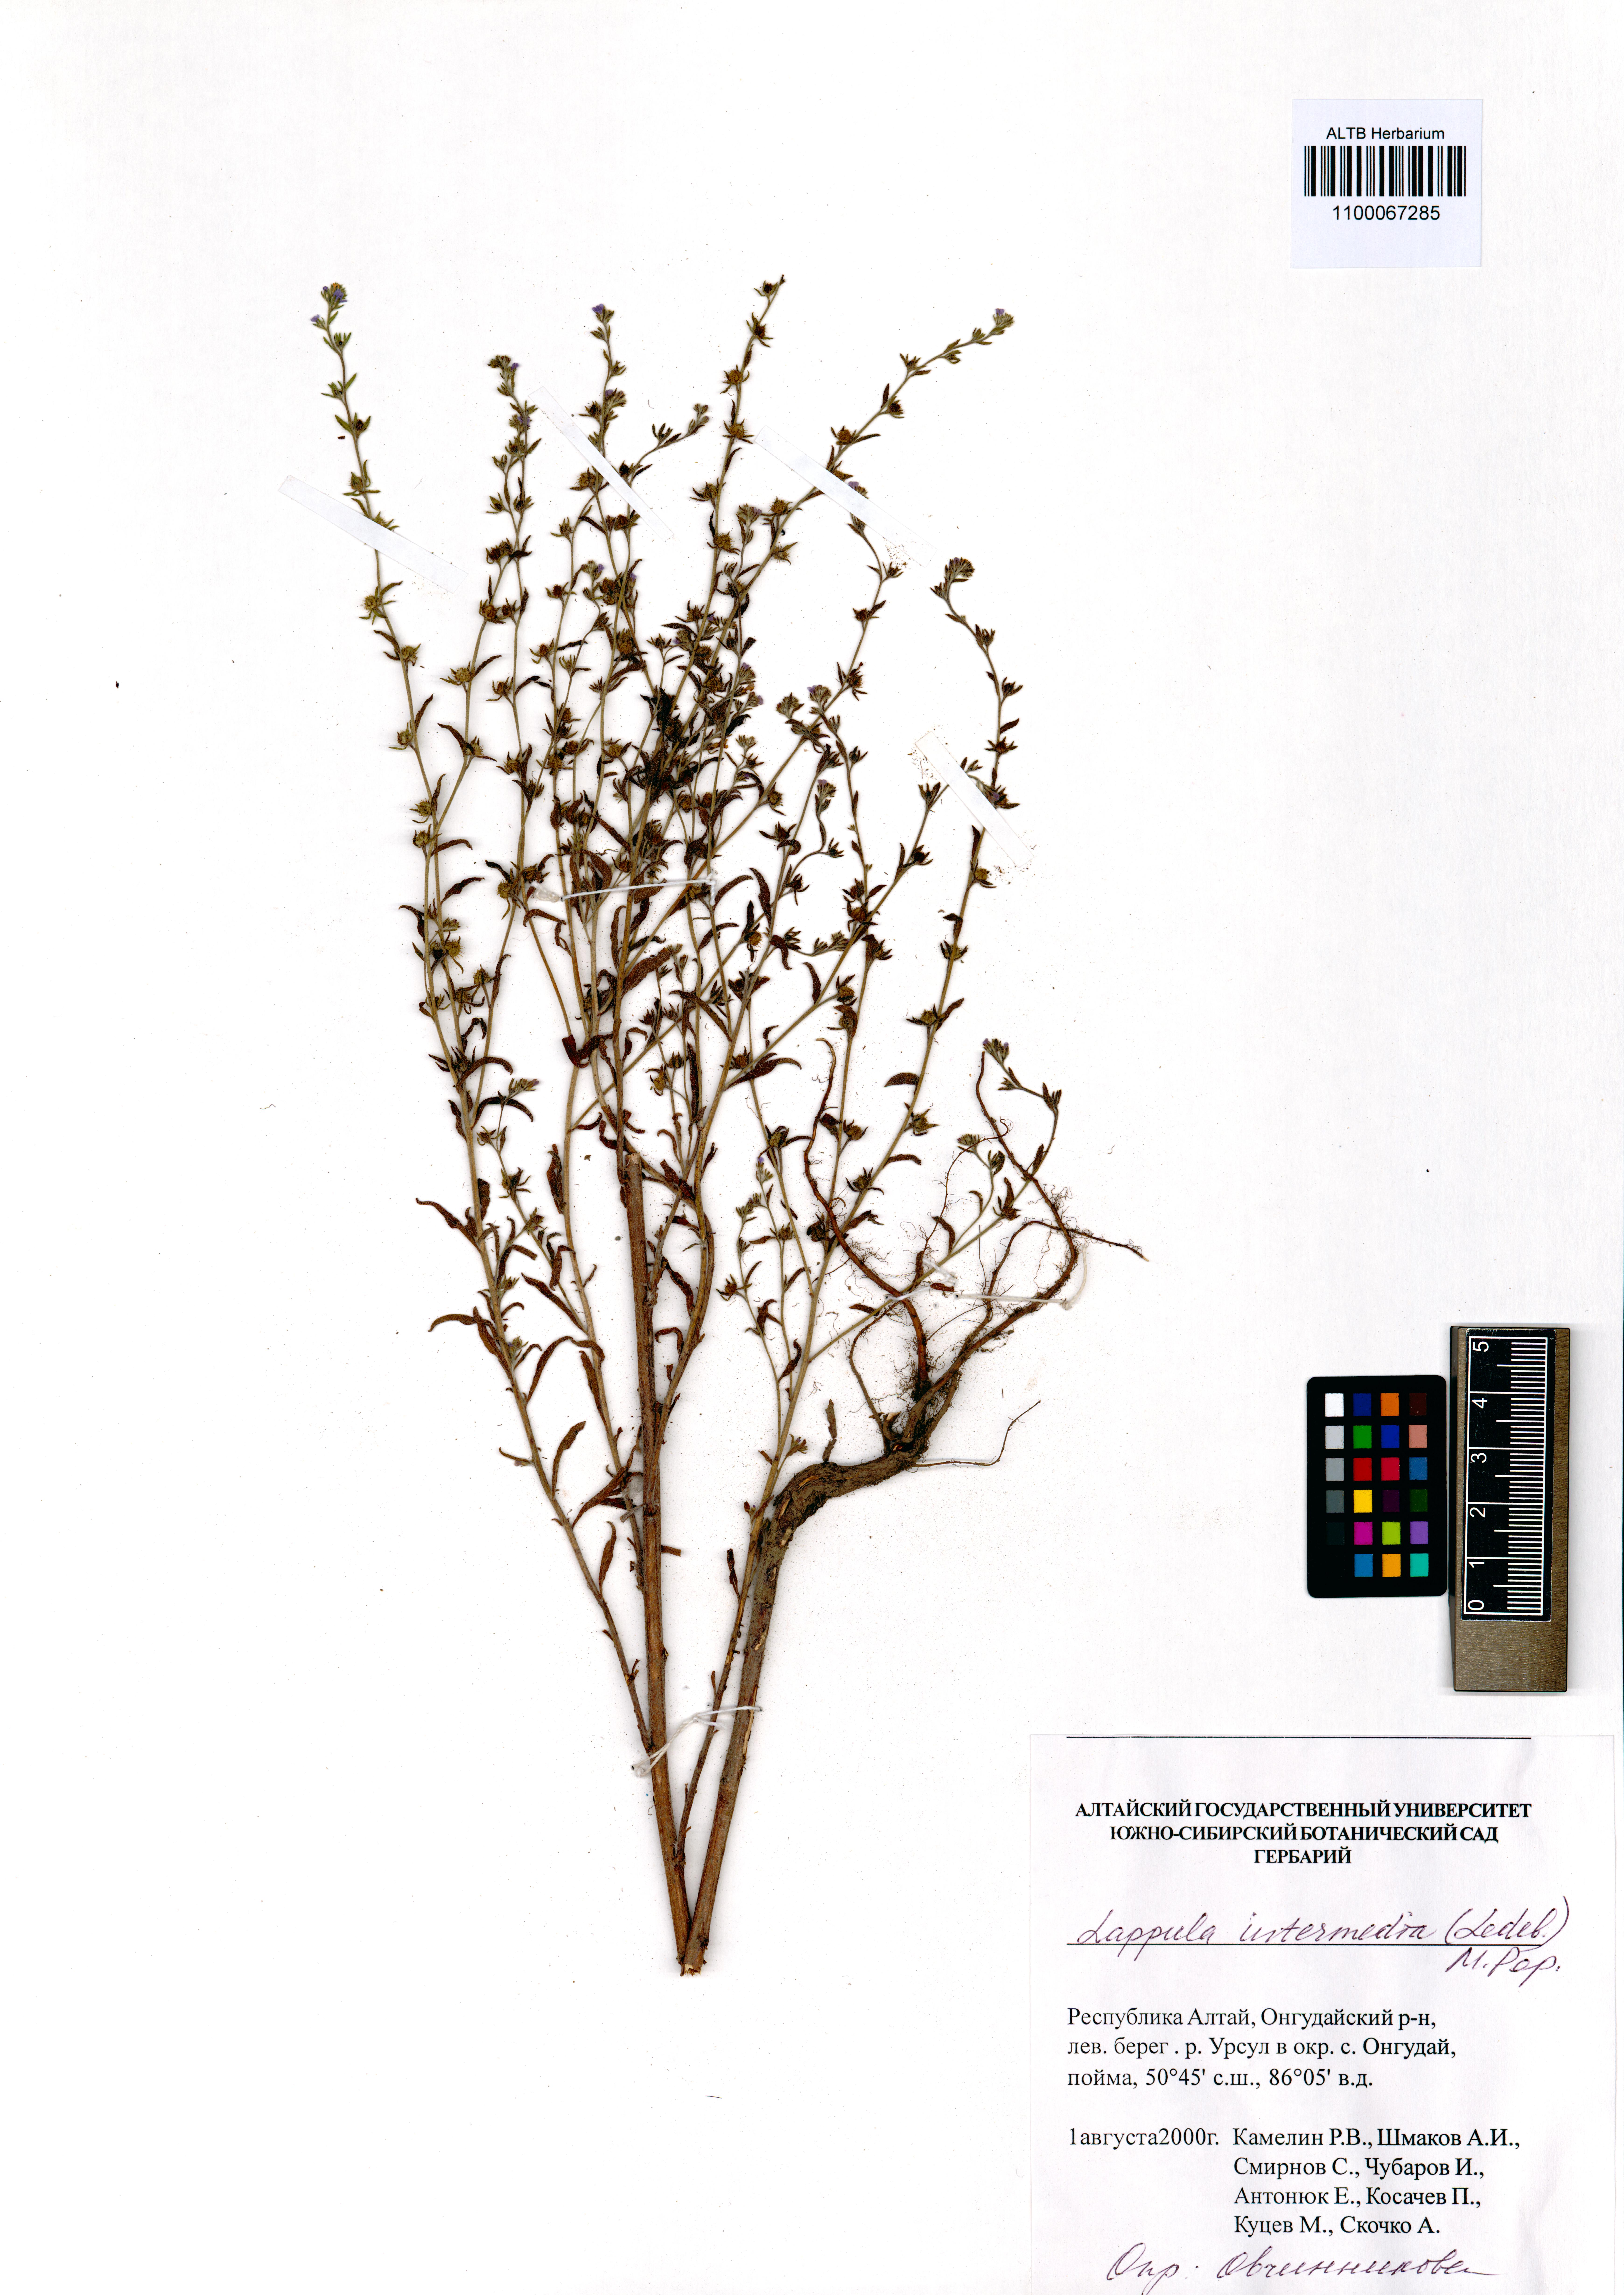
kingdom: Plantae
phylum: Tracheophyta
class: Magnoliopsida
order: Boraginales
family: Boraginaceae
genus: Lappula
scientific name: Lappula intermedia
